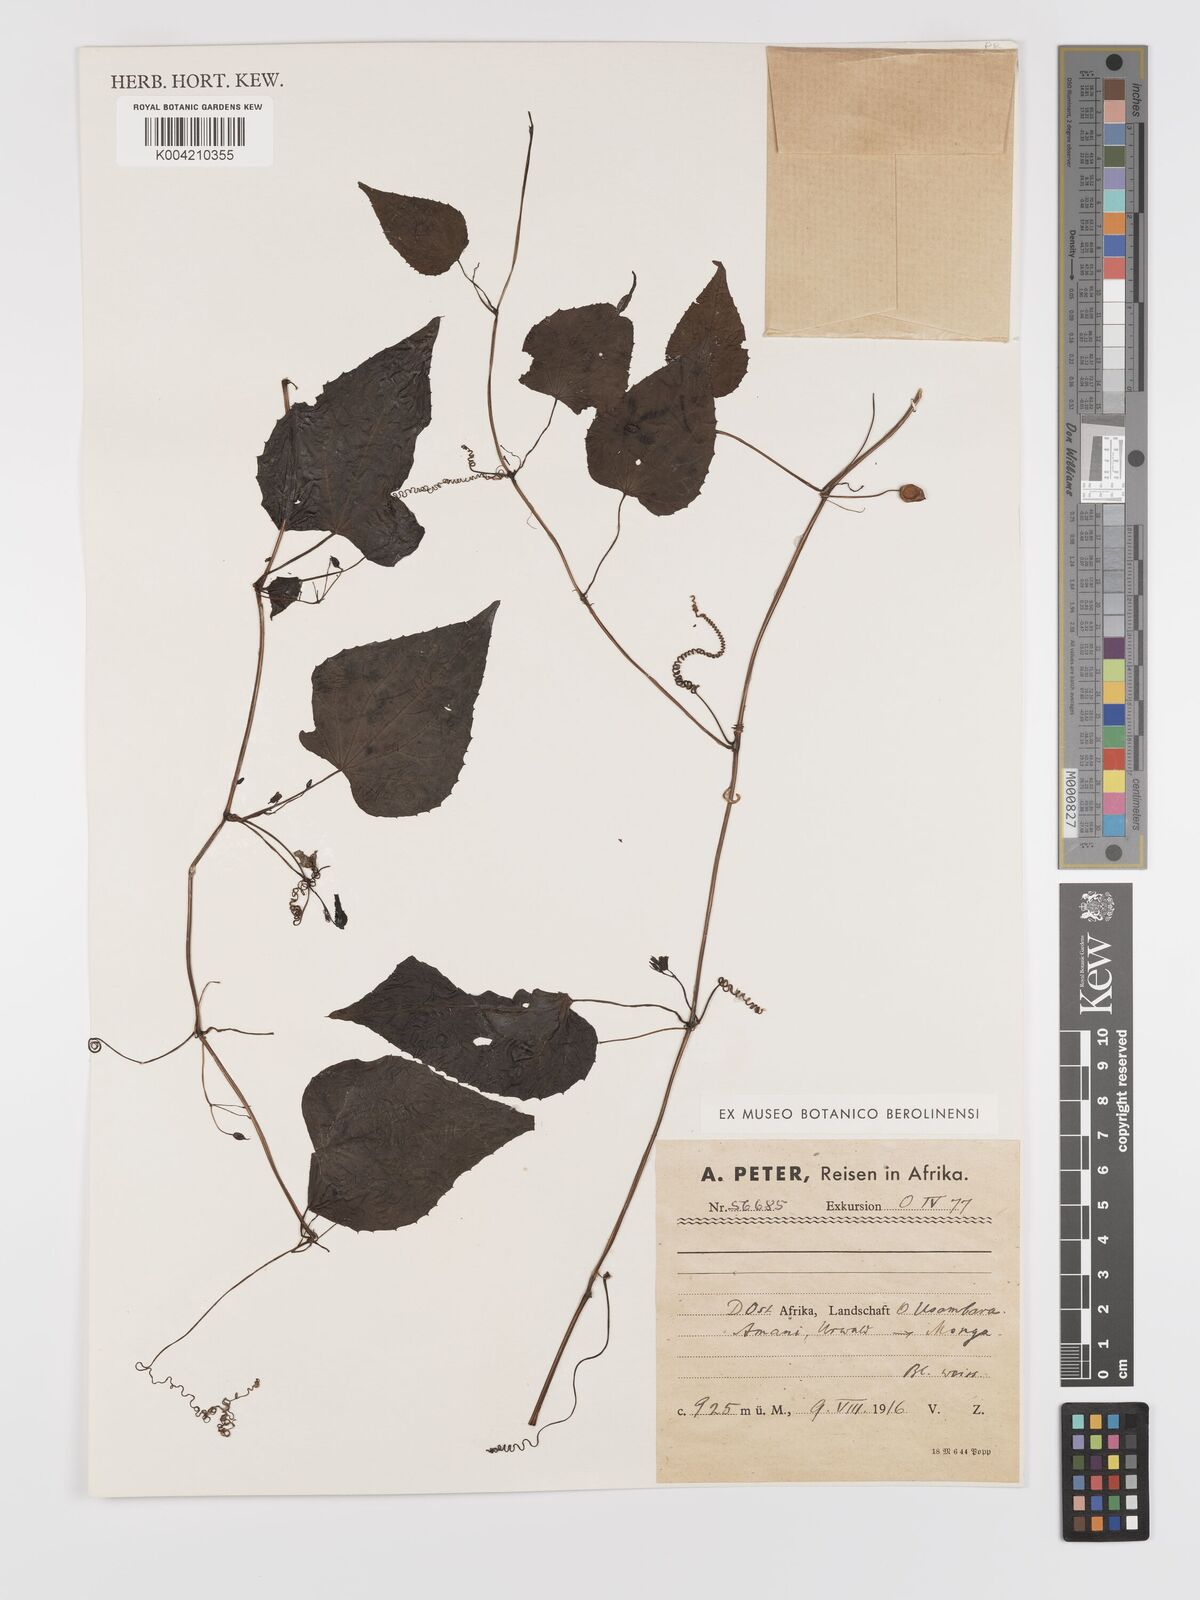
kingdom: Plantae
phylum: Tracheophyta
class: Magnoliopsida
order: Cucurbitales
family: Cucurbitaceae
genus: Zehneria
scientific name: Zehneria emirnensis
